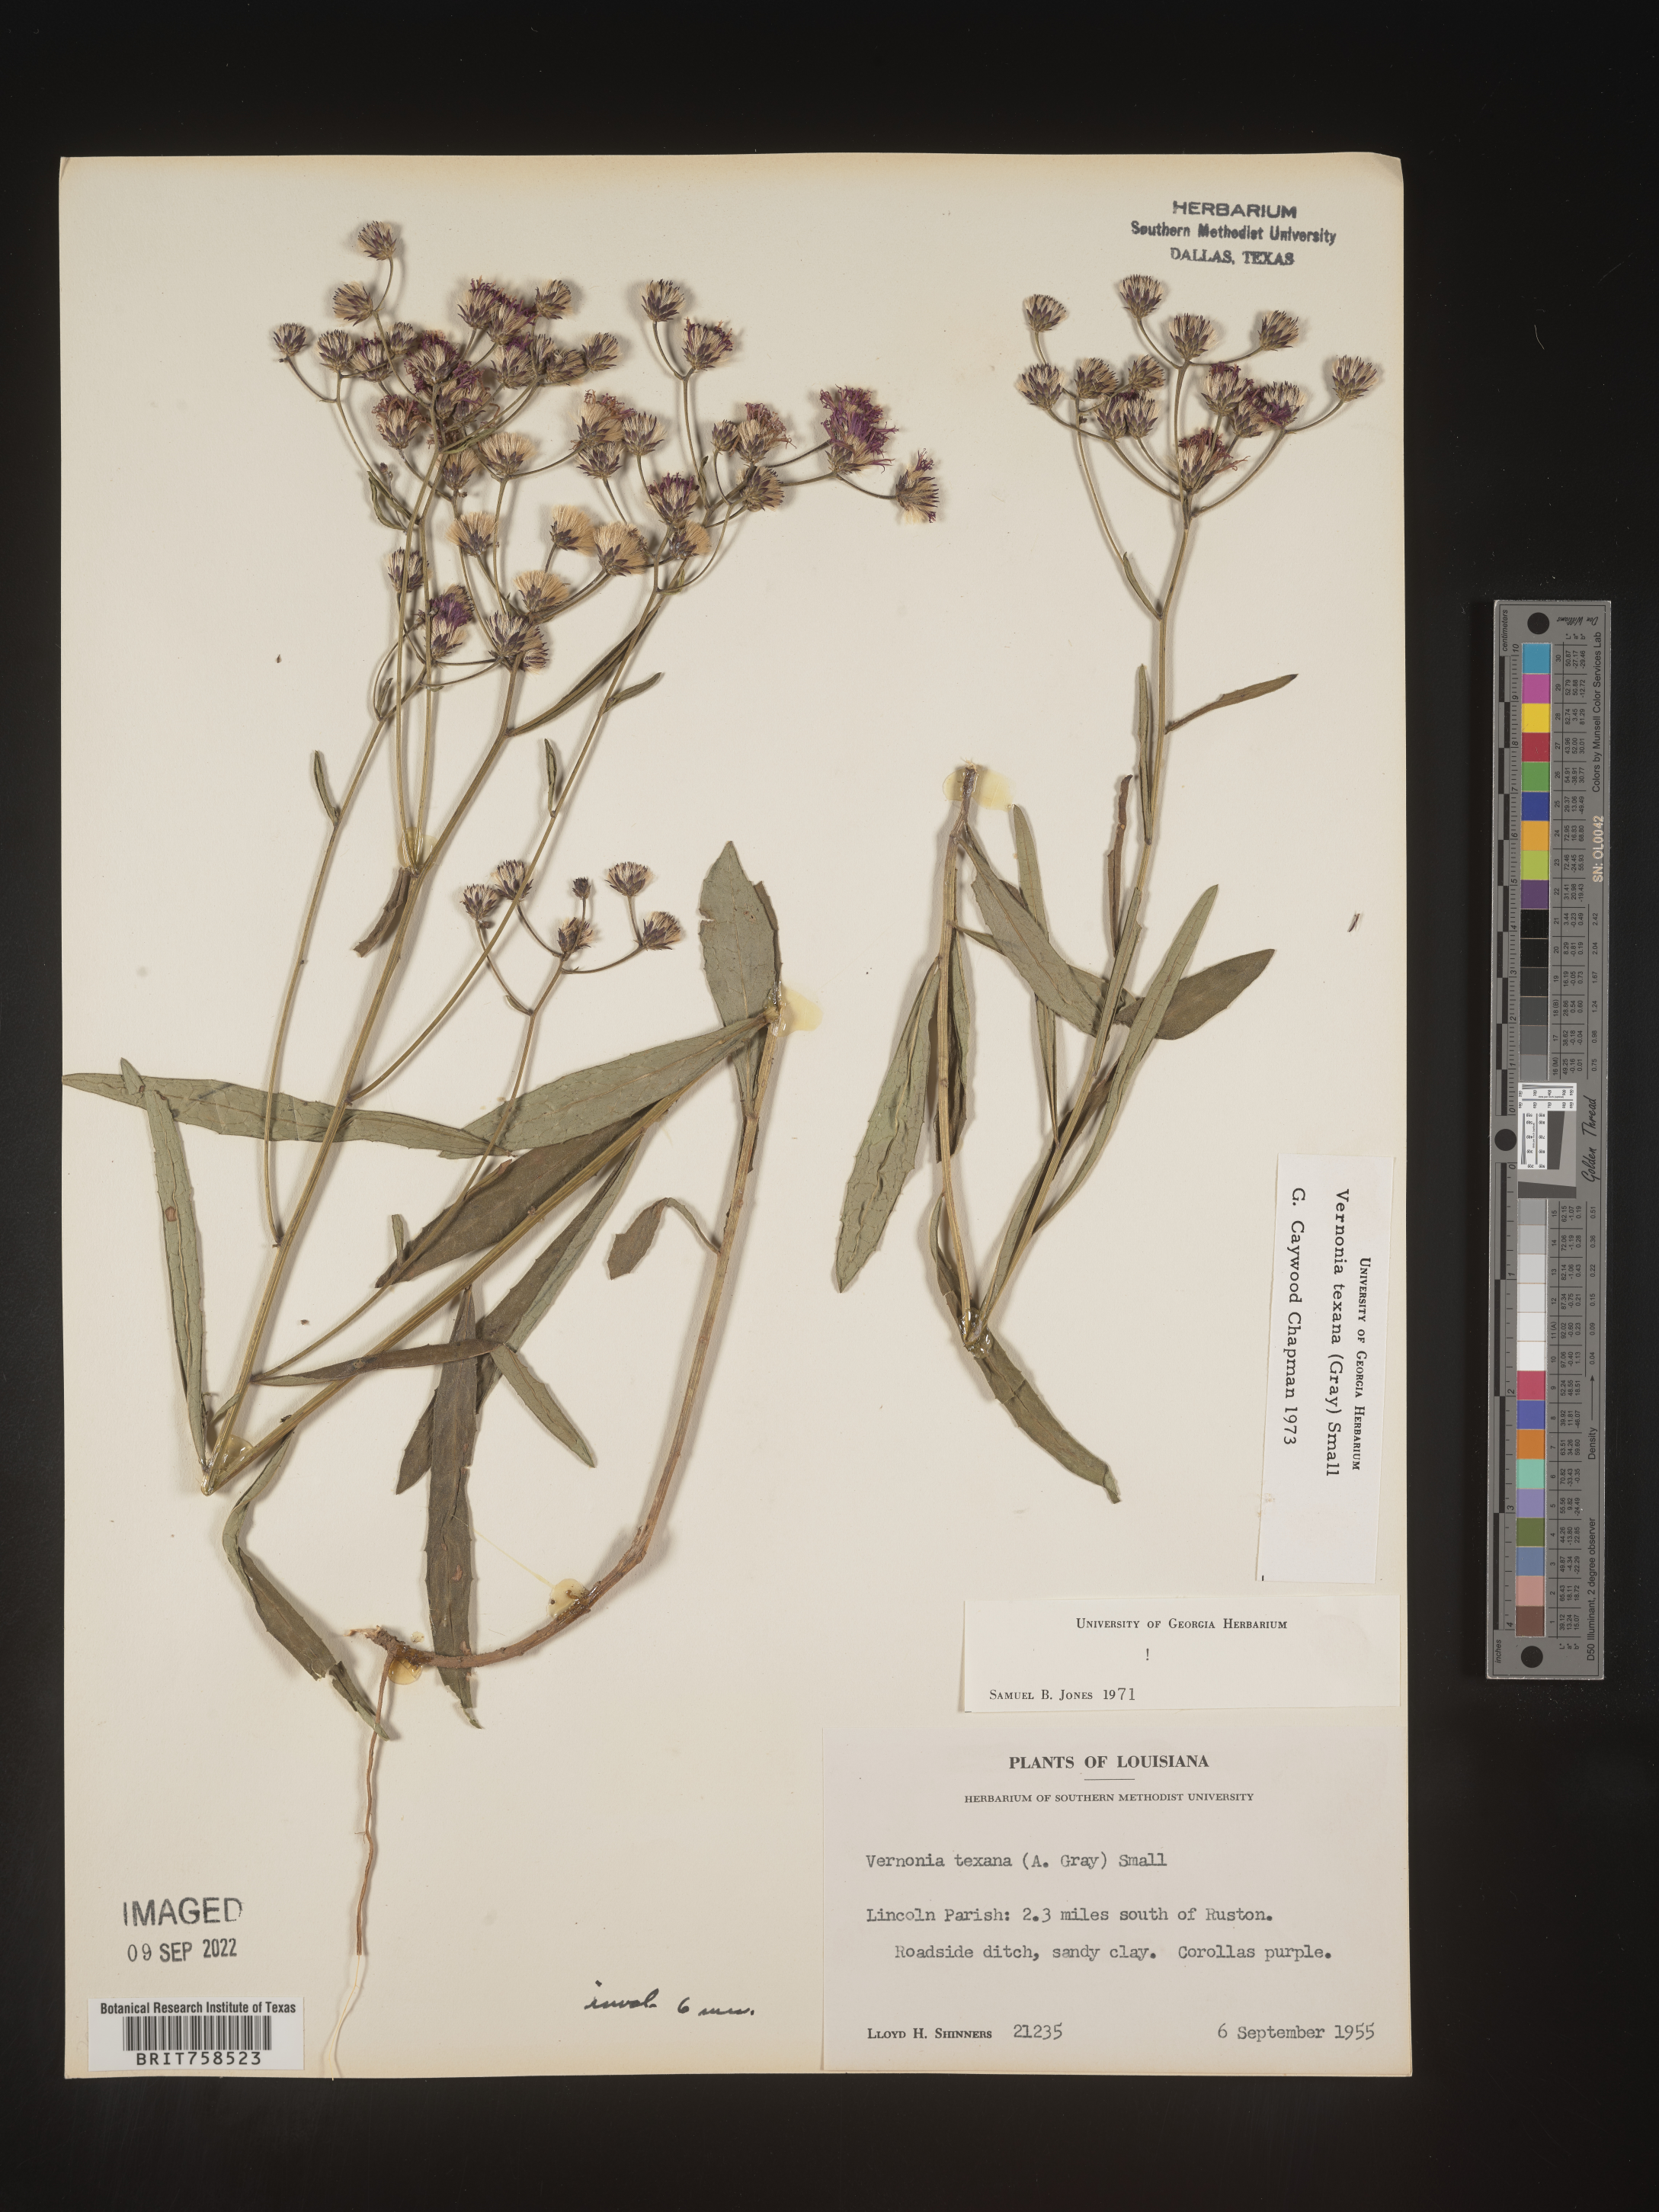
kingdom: Plantae
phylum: Tracheophyta
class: Magnoliopsida
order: Asterales
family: Asteraceae
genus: Vernonia
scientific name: Vernonia texana
